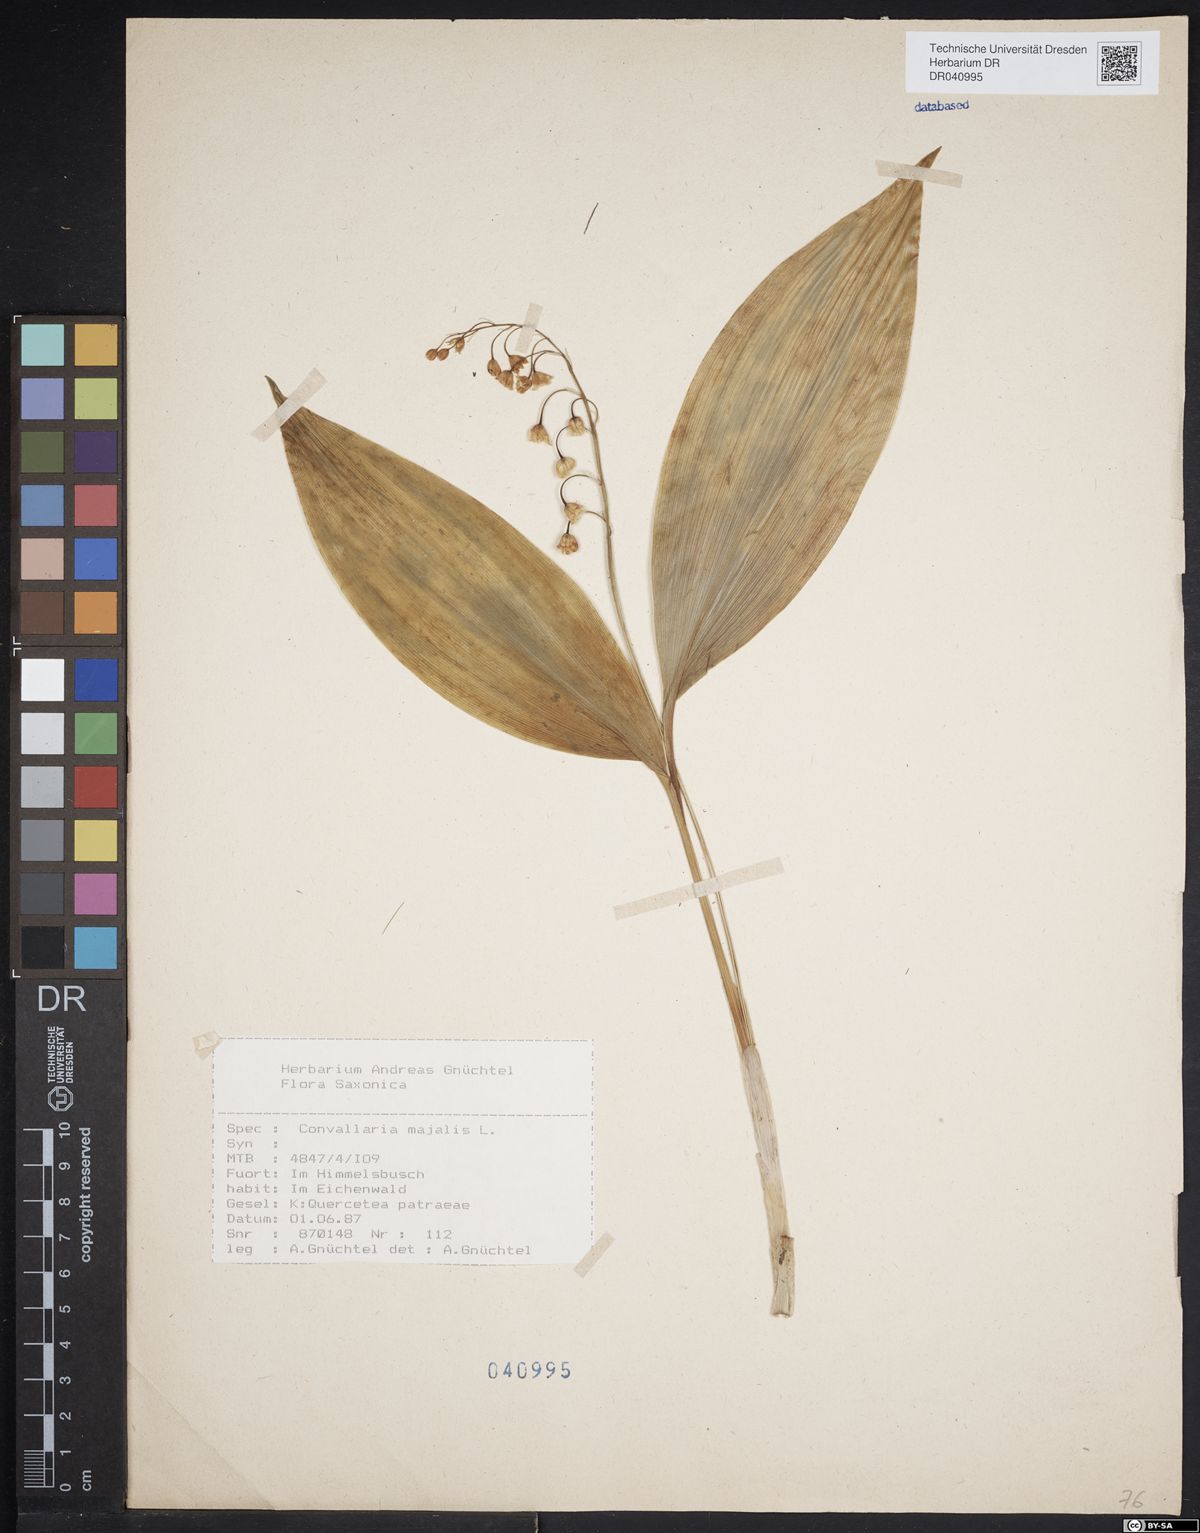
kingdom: Plantae
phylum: Tracheophyta
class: Liliopsida
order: Asparagales
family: Asparagaceae
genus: Convallaria
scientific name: Convallaria majalis
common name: Lily-of-the-valley
